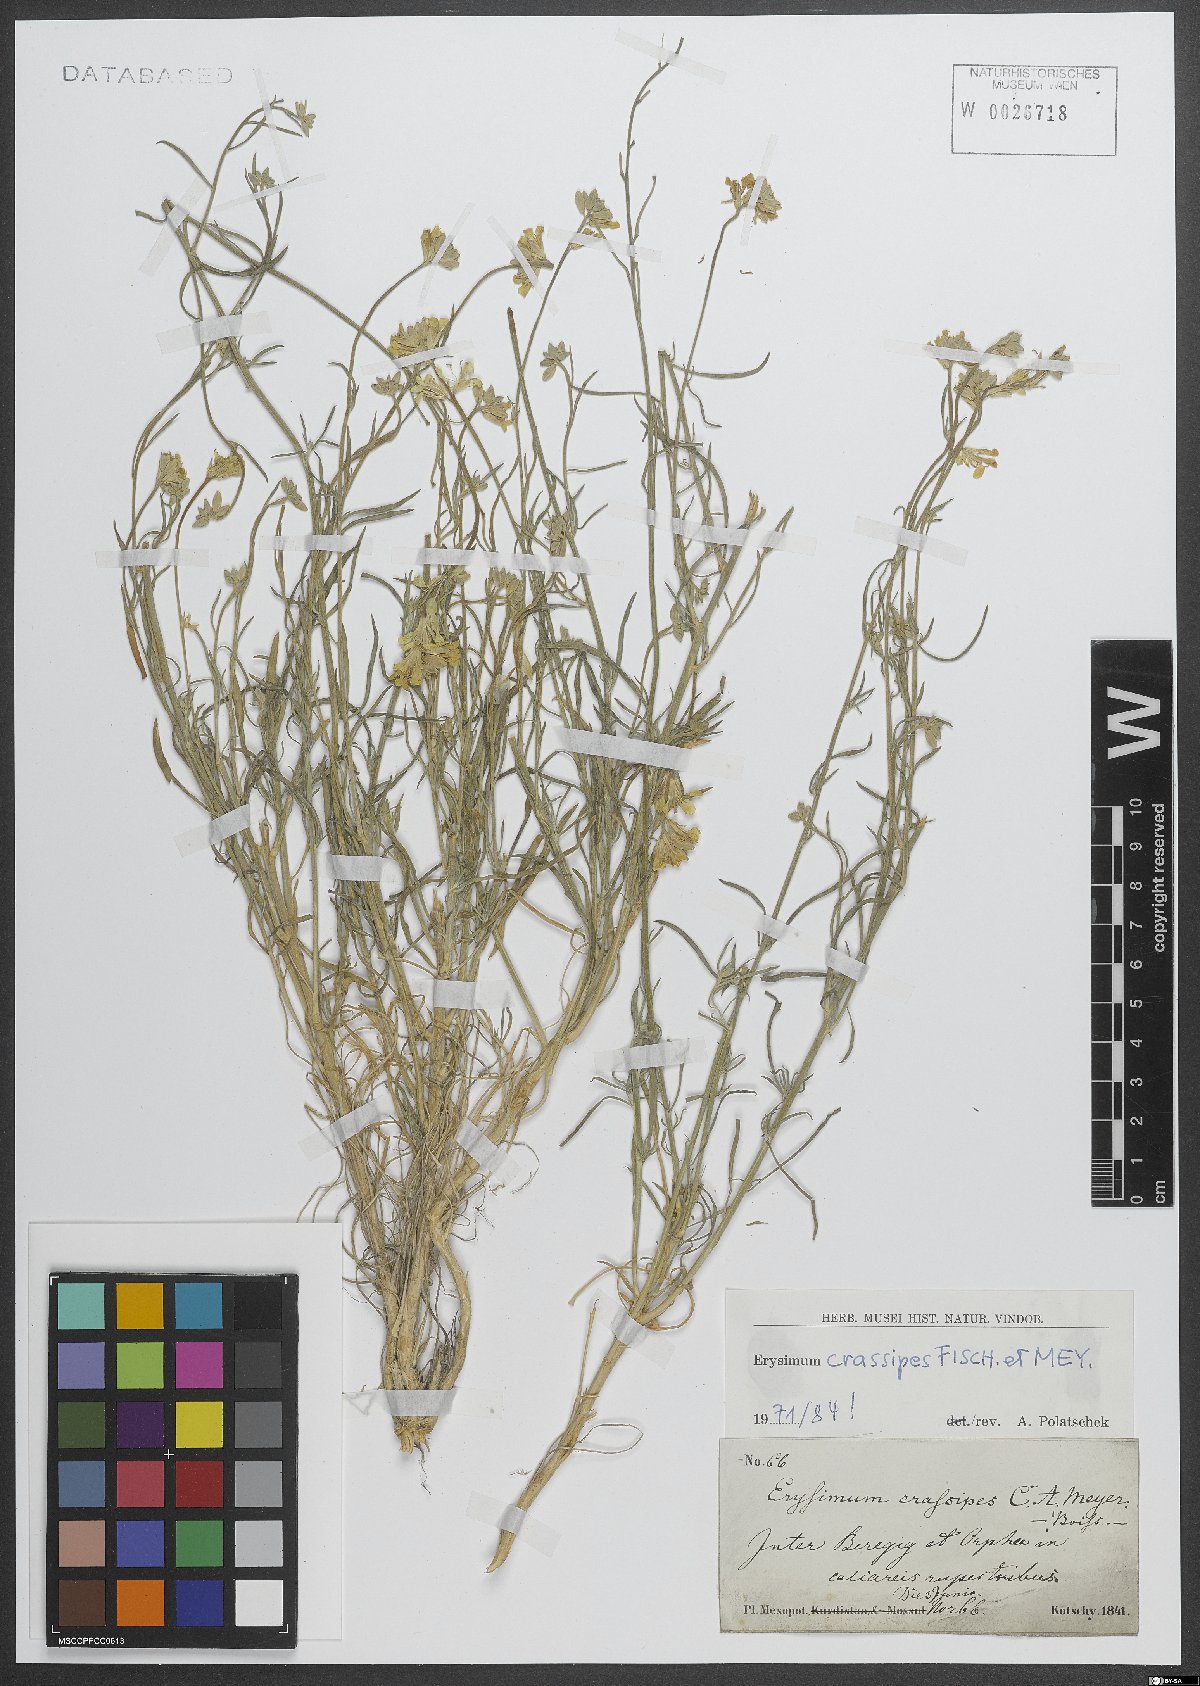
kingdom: Plantae
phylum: Tracheophyta
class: Magnoliopsida
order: Brassicales
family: Brassicaceae
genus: Erysimum
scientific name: Erysimum crassipes
